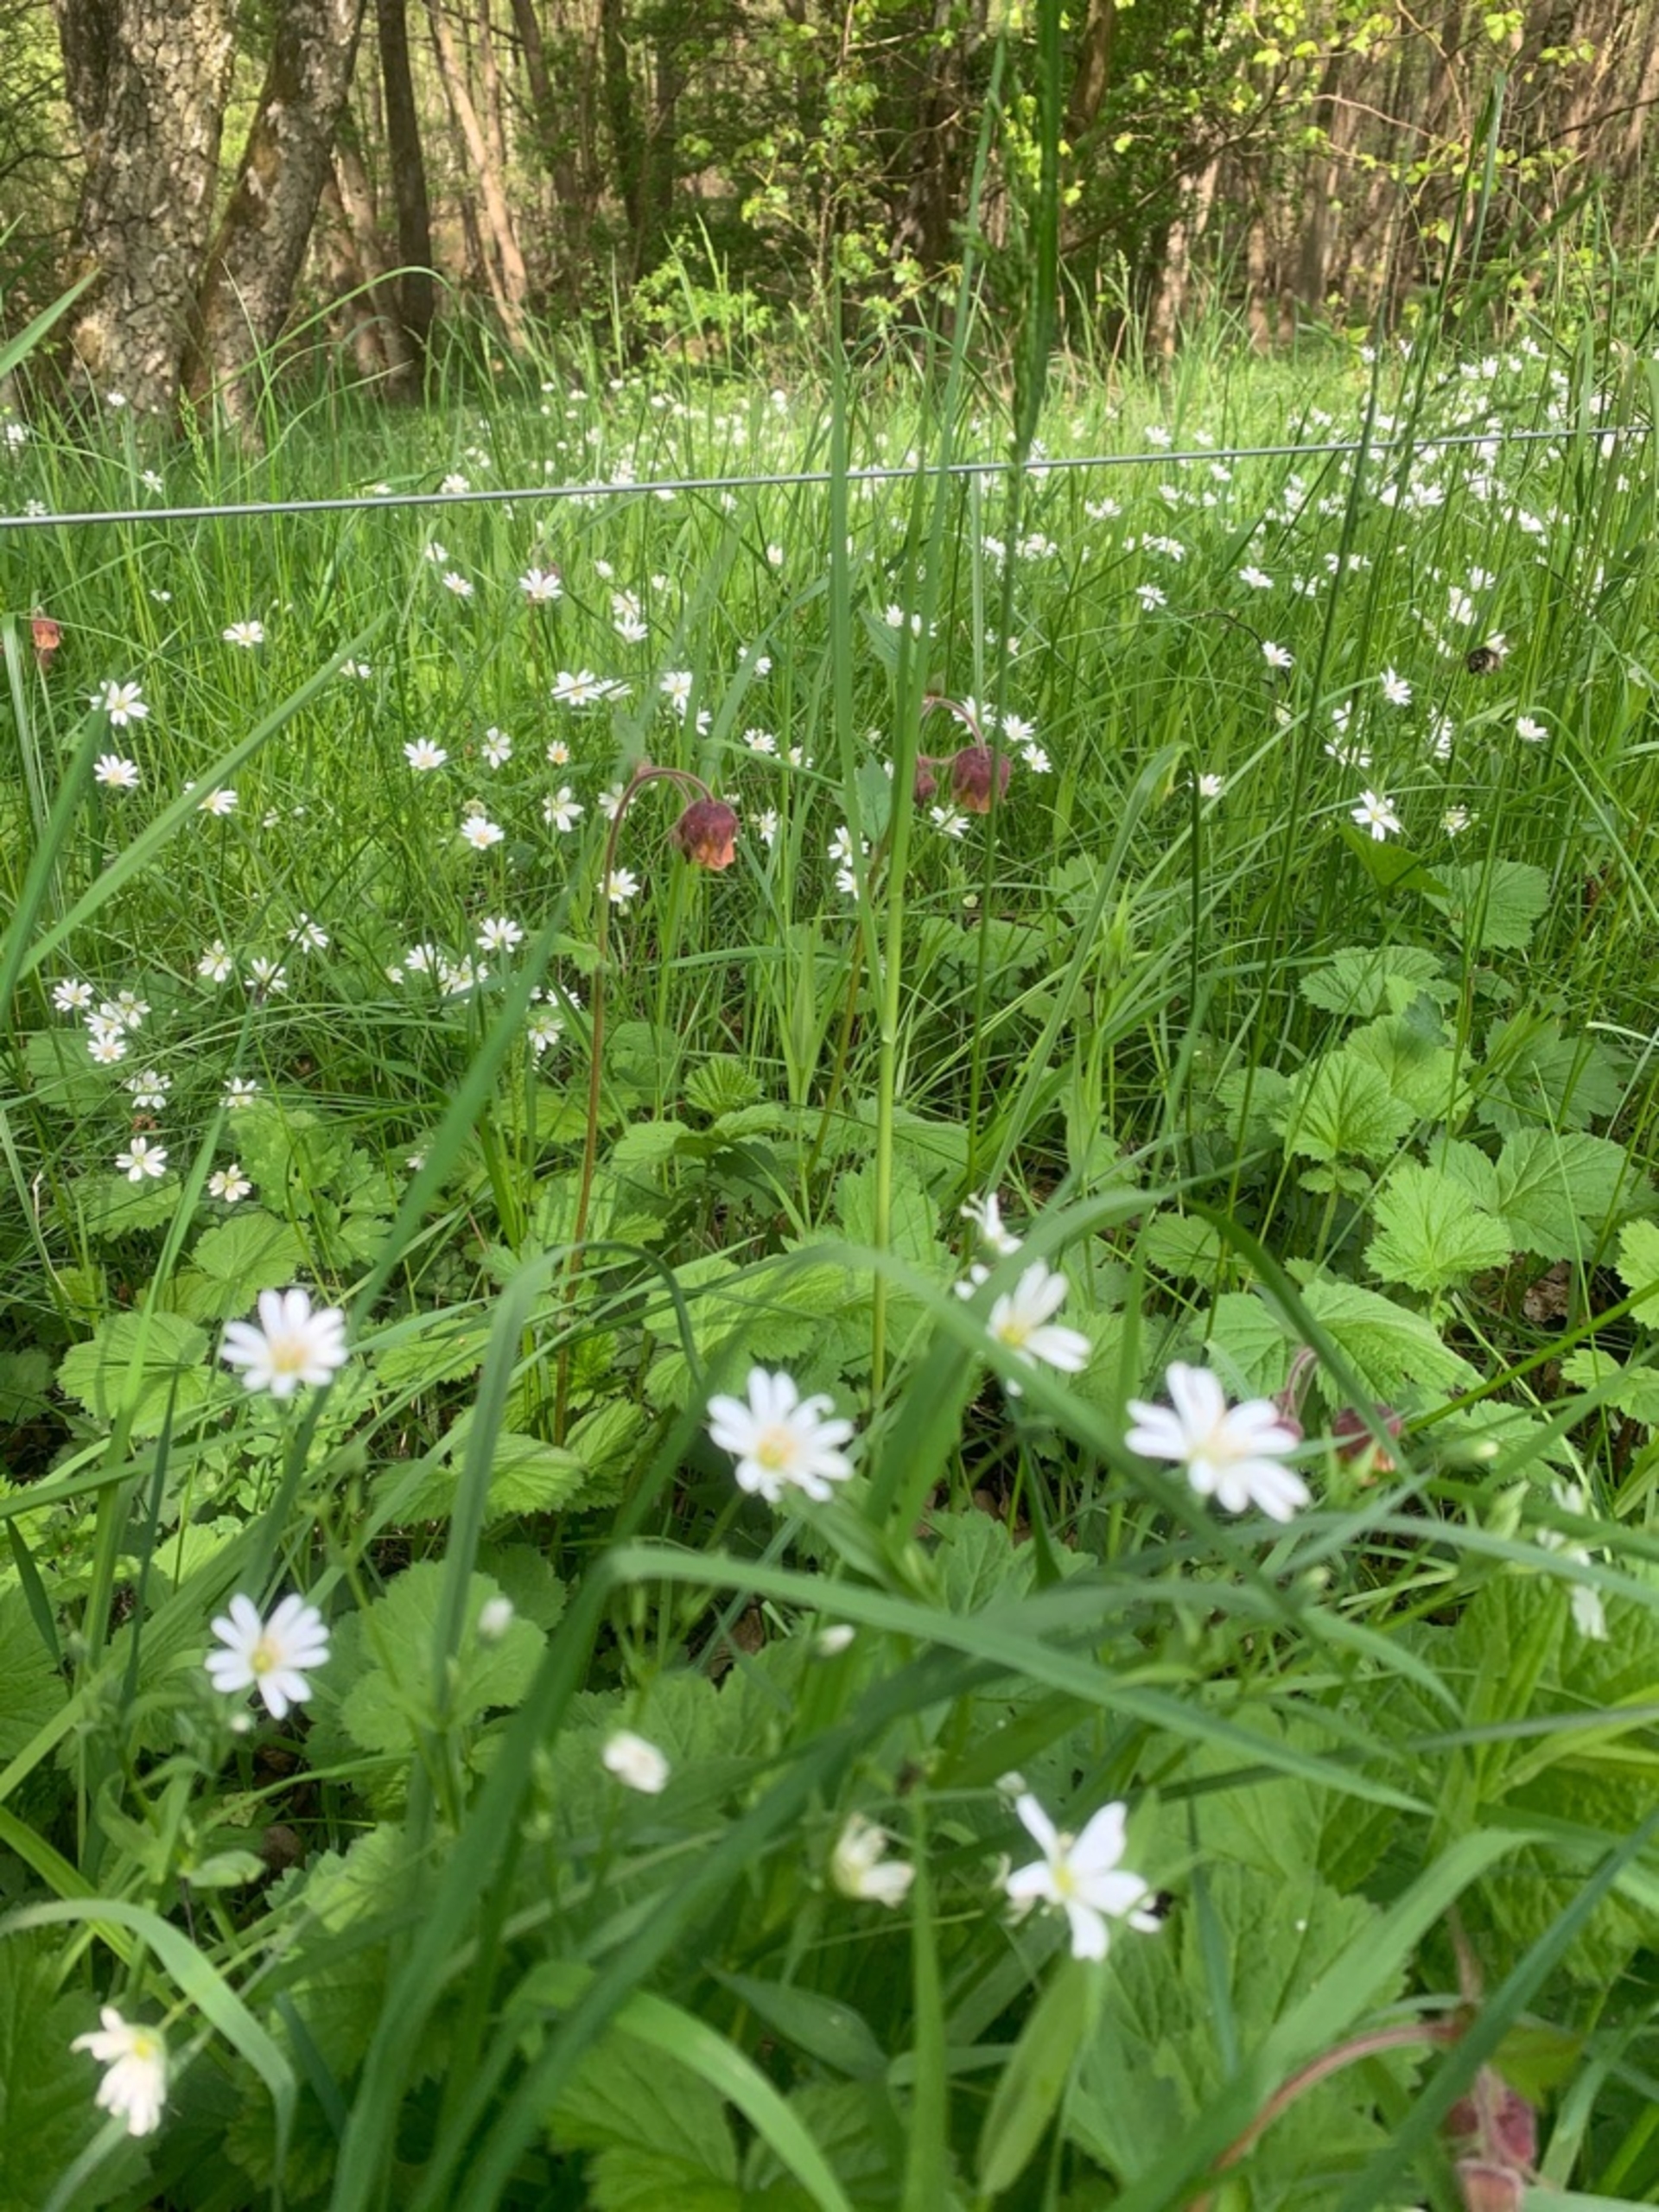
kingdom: Plantae
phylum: Tracheophyta
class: Magnoliopsida
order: Caryophyllales
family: Caryophyllaceae
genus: Rabelera
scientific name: Rabelera holostea
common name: Stor fladstjerne
